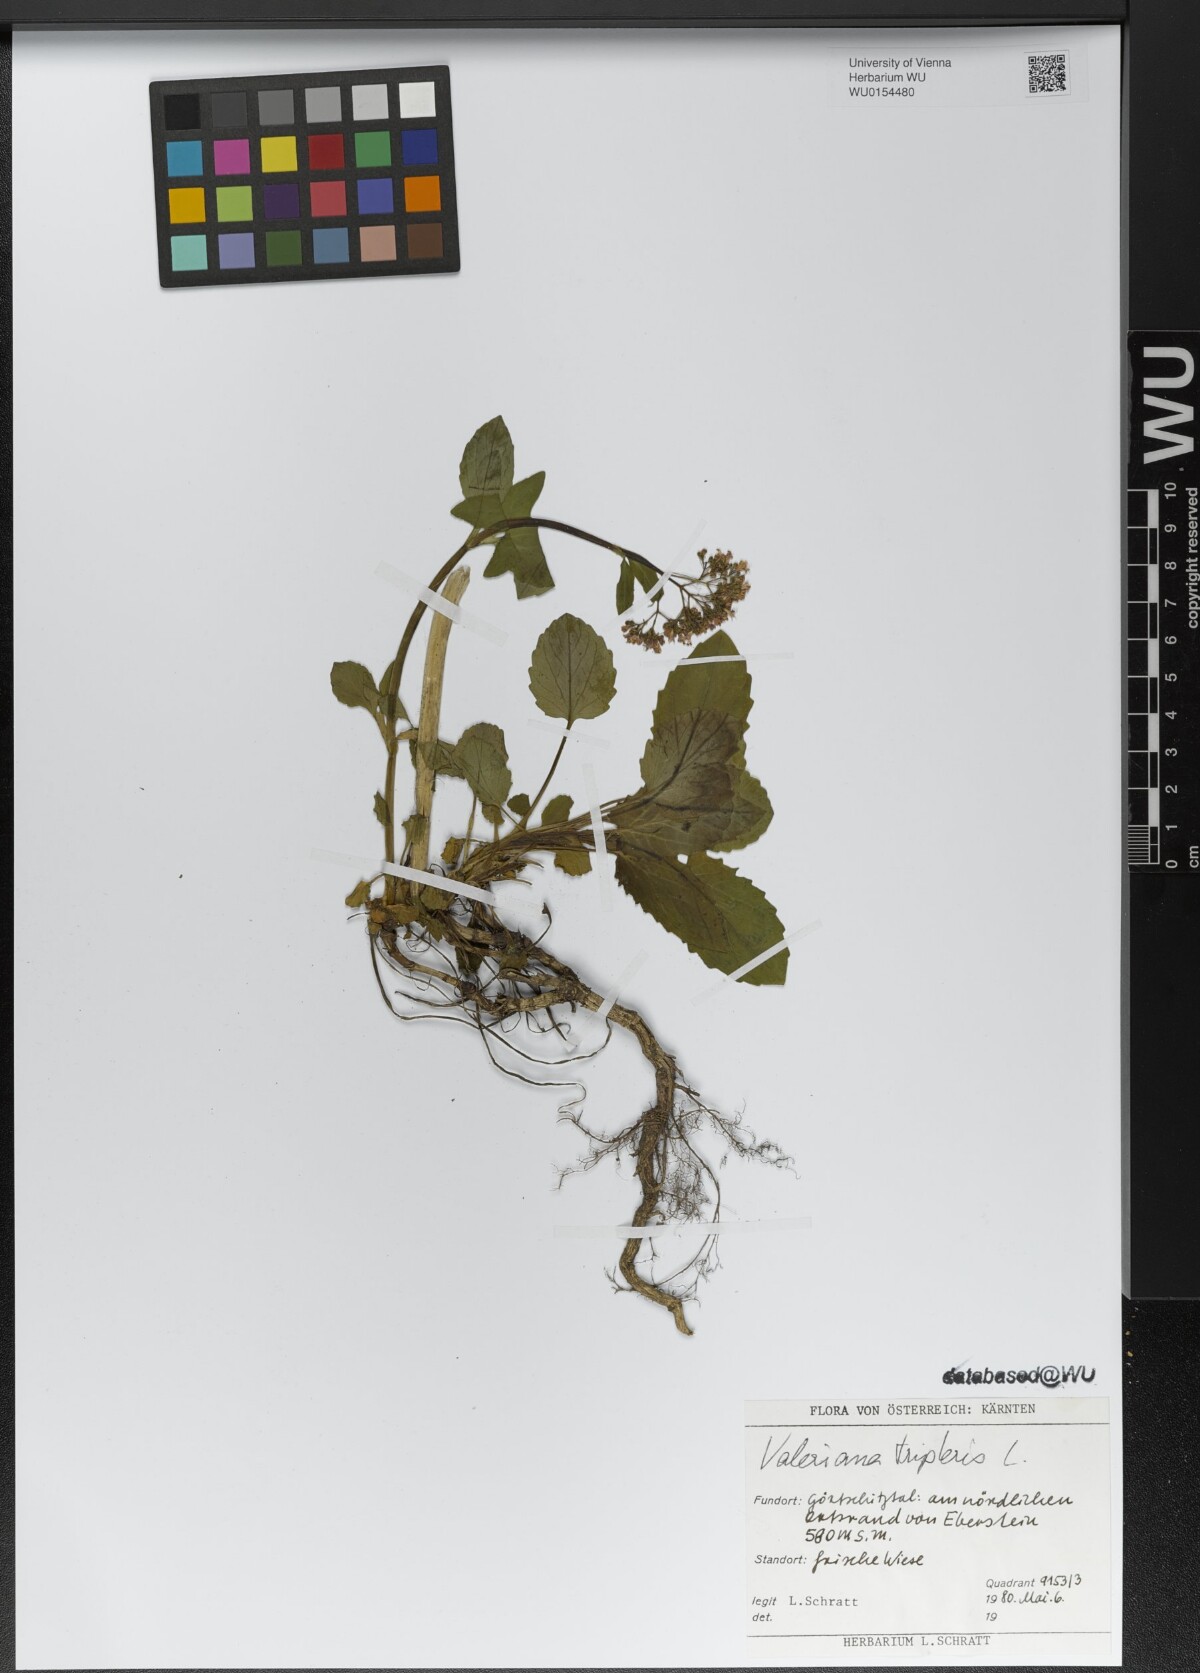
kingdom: Plantae
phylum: Tracheophyta
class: Magnoliopsida
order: Dipsacales
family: Caprifoliaceae
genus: Valeriana
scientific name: Valeriana tripteris
